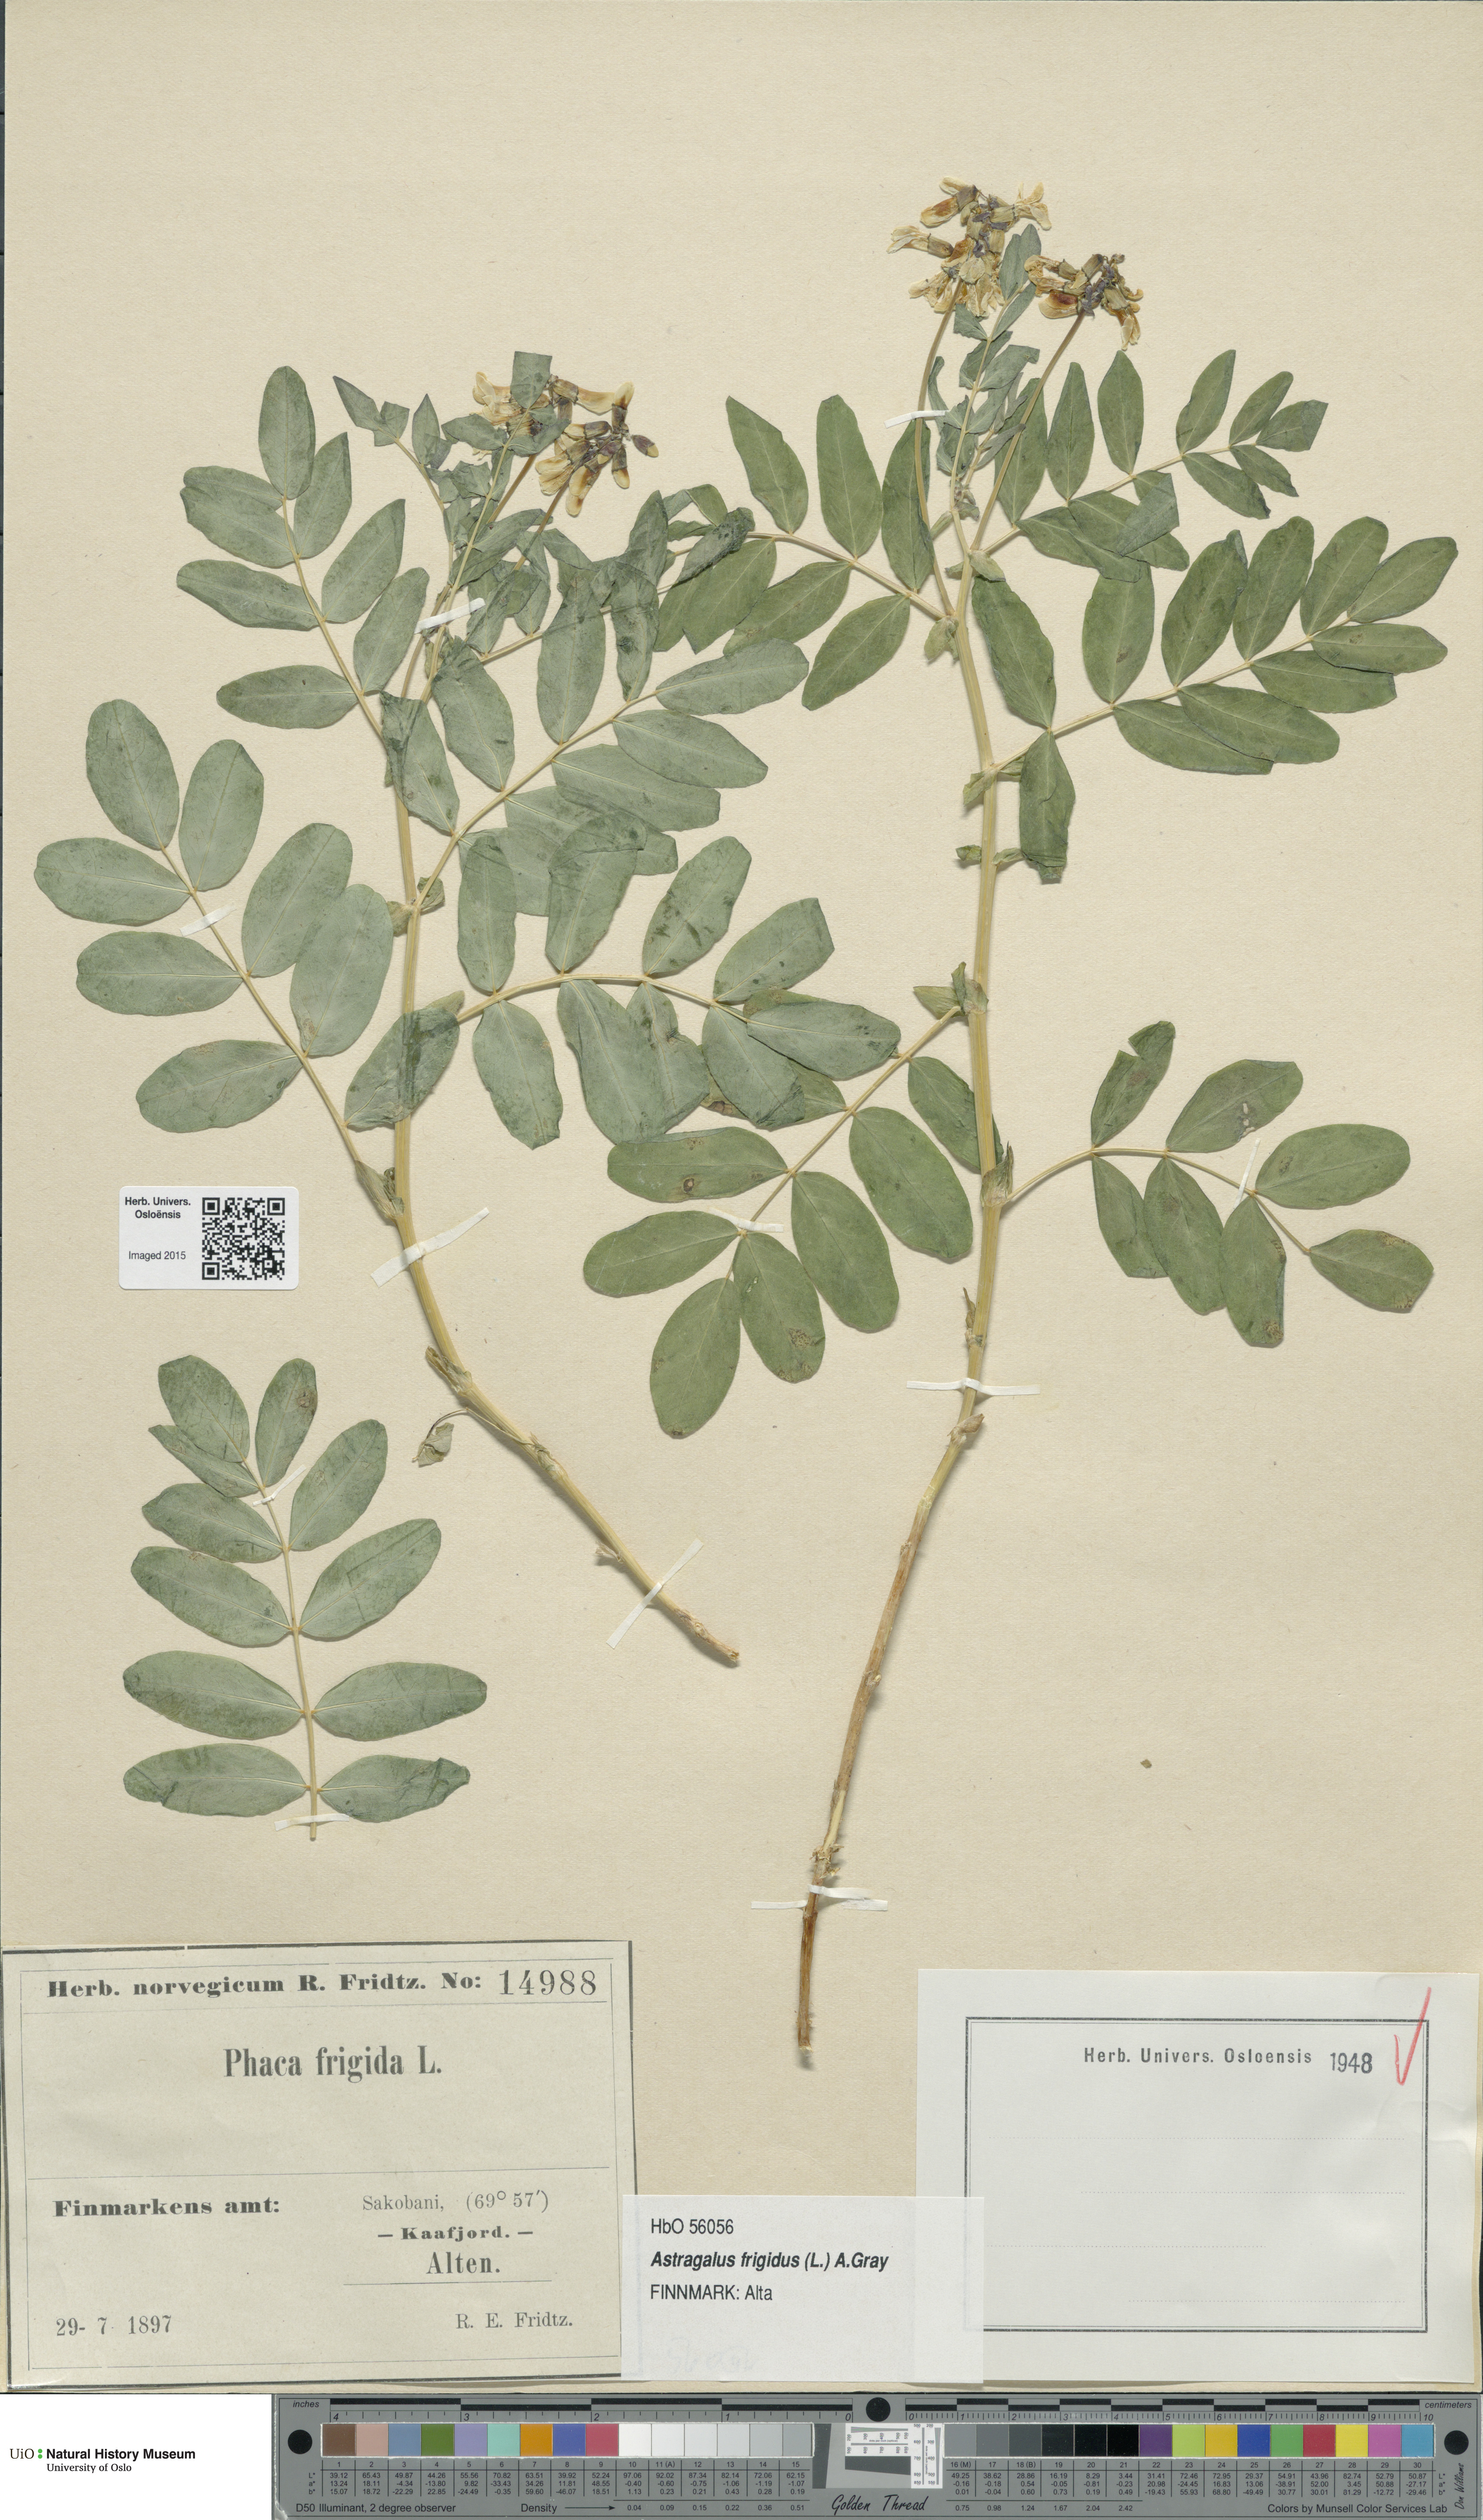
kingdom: Plantae
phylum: Tracheophyta
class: Magnoliopsida
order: Fabales
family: Fabaceae
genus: Astragalus
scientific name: Astragalus frigidus
